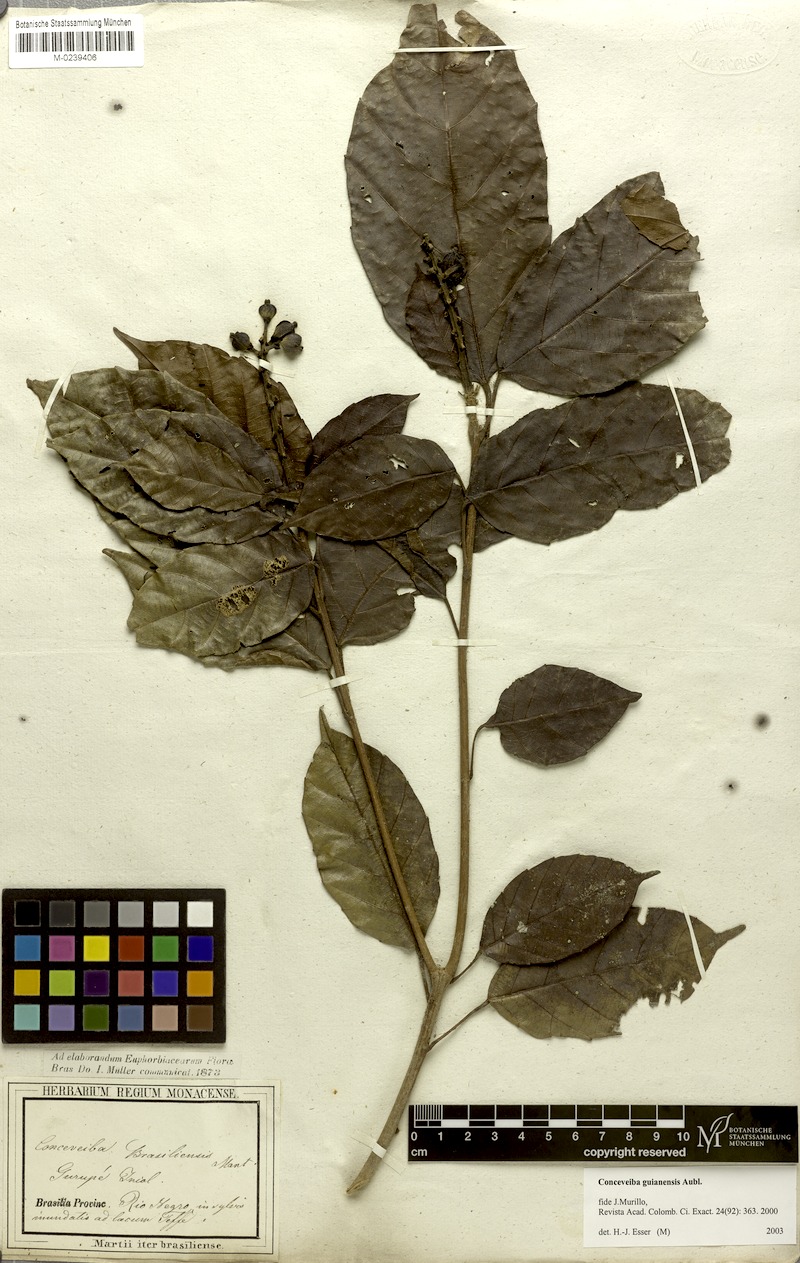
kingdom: Plantae
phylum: Tracheophyta
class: Magnoliopsida
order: Malpighiales
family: Euphorbiaceae
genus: Conceveiba
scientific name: Conceveiba guianensis
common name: Poatoru
